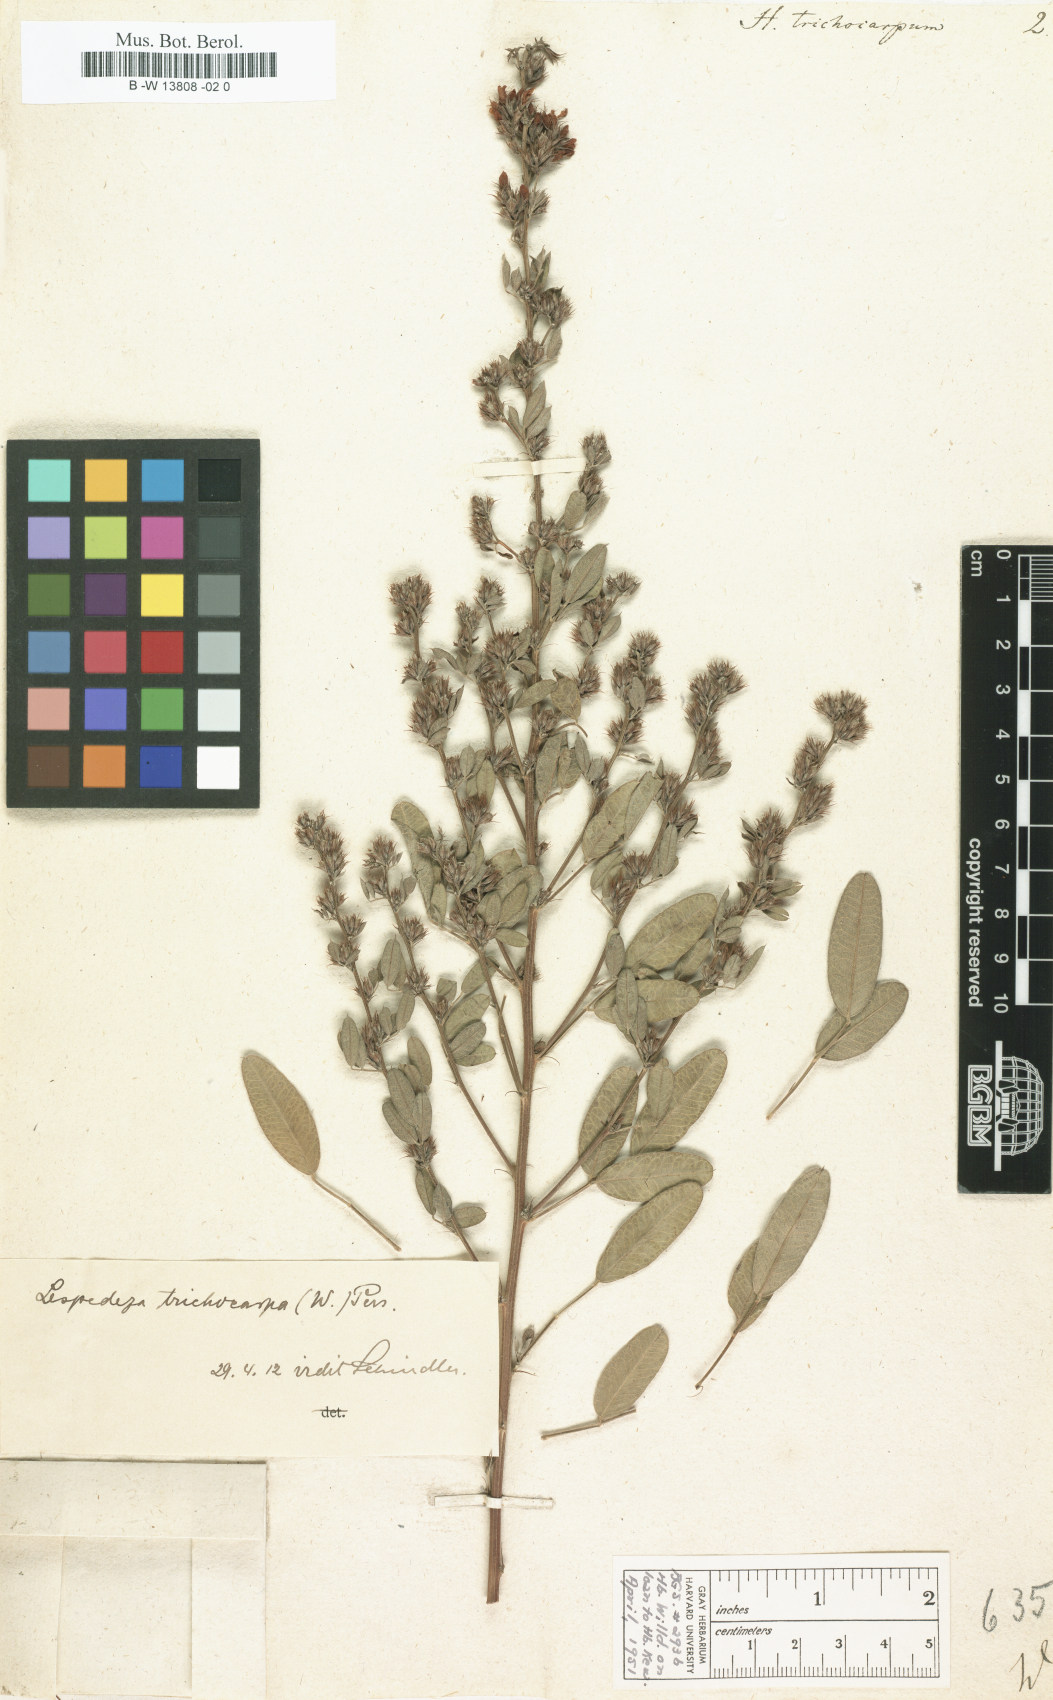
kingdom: Plantae
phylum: Tracheophyta
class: Magnoliopsida
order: Fabales
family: Fabaceae
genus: Lespedeza
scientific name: Lespedeza daurica
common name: Dahurian lespedeza
